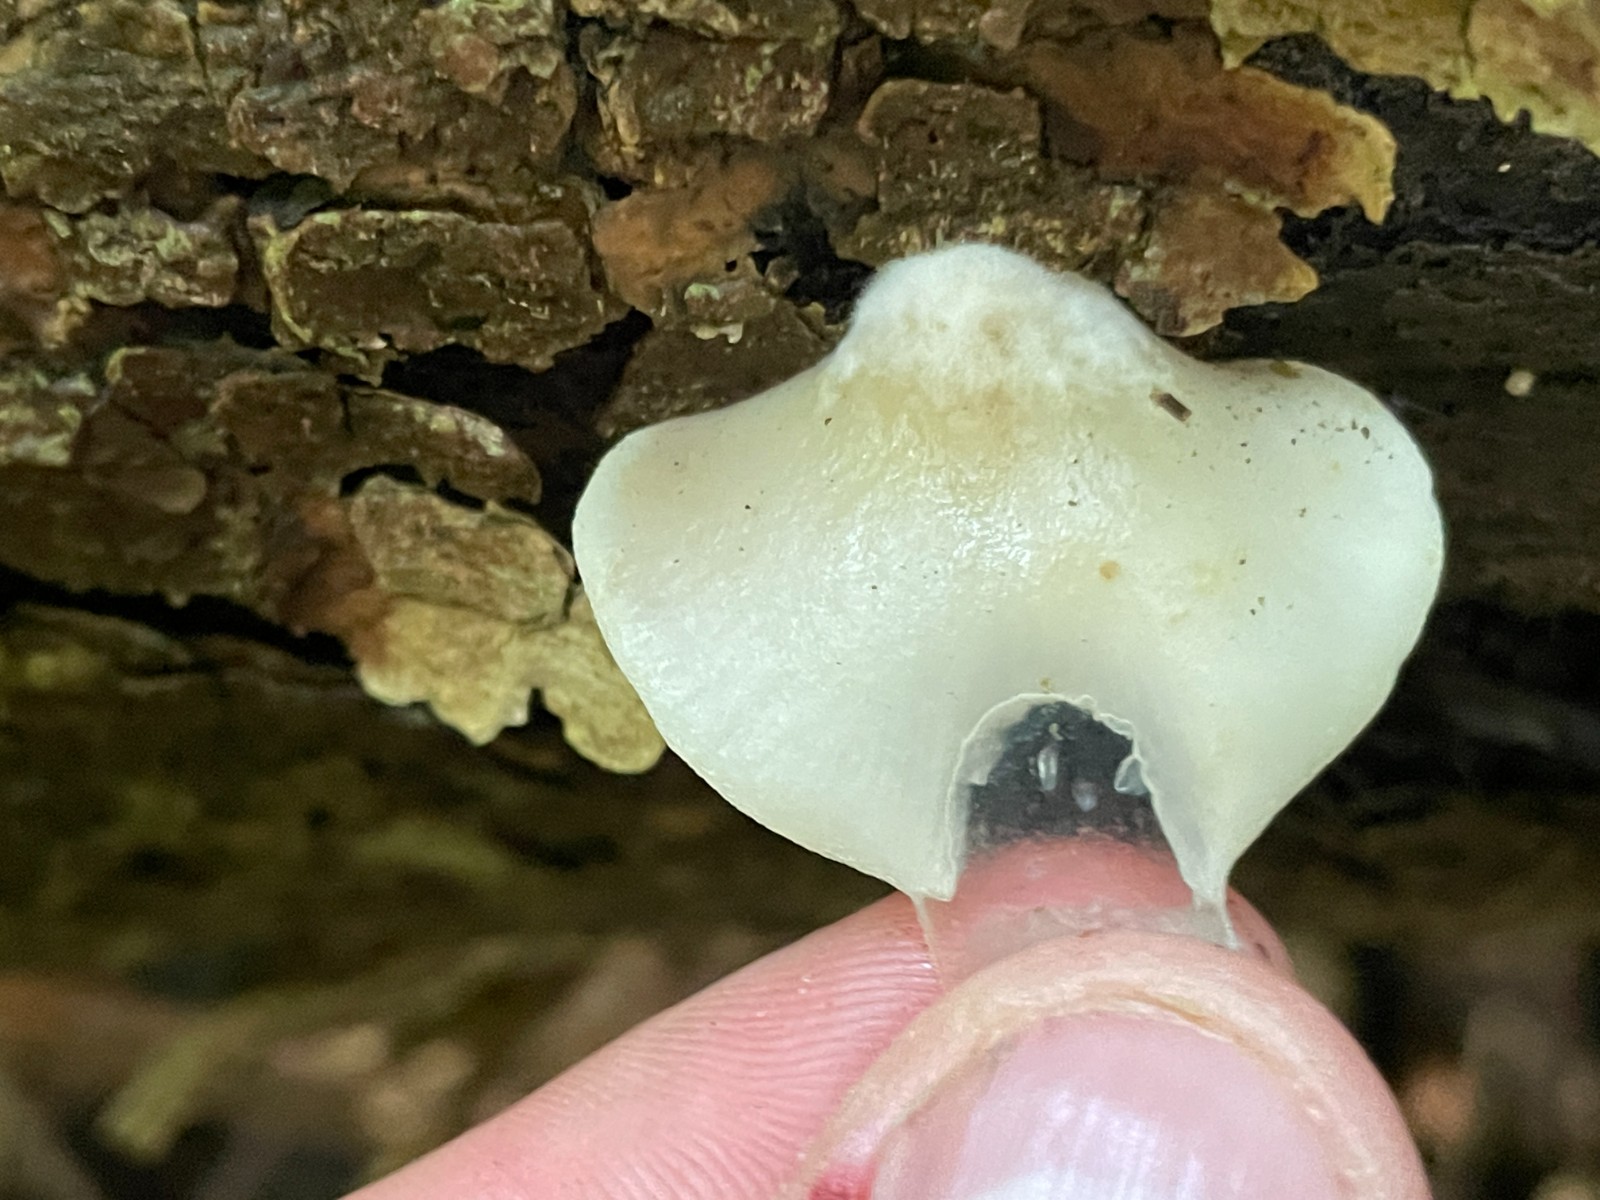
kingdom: Fungi
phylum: Basidiomycota
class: Agaricomycetes
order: Agaricales
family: Crepidotaceae
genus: Crepidotus
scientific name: Crepidotus mollis
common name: blød muslingesvamp
